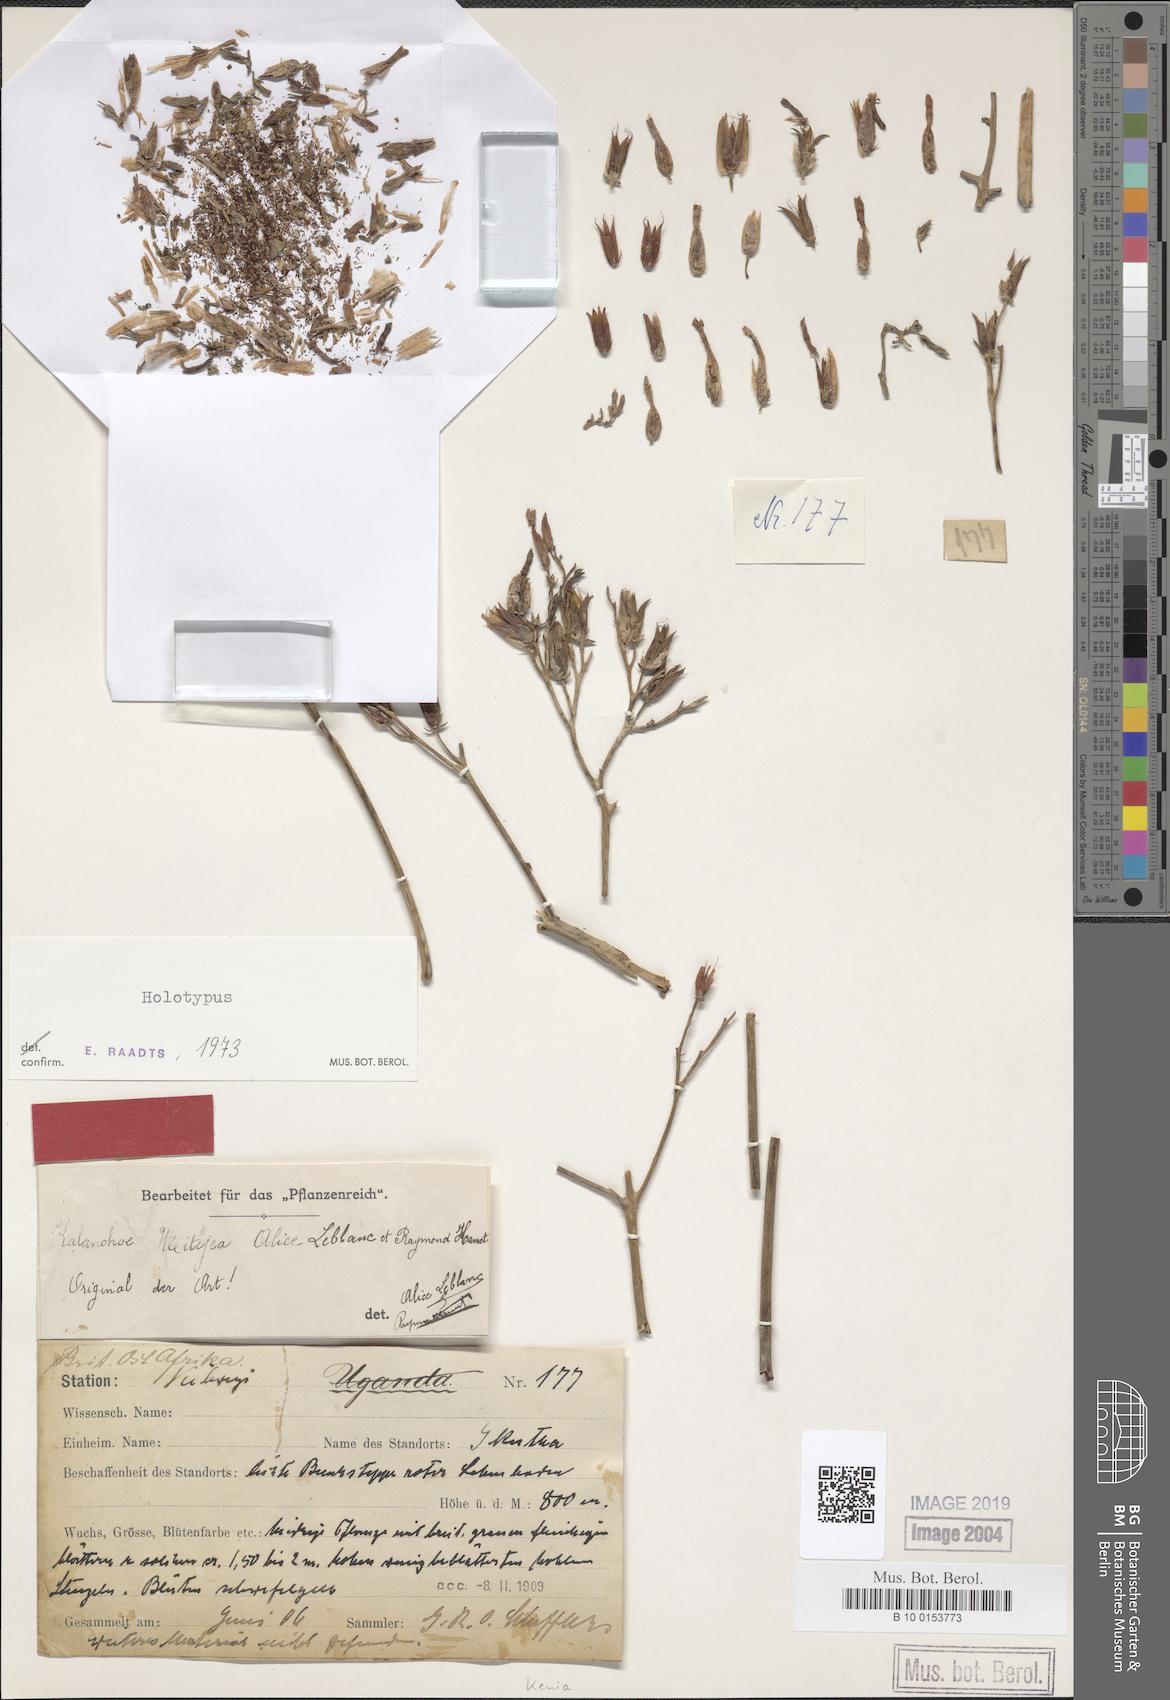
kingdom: Plantae
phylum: Tracheophyta
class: Magnoliopsida
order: Saxifragales
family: Crassulaceae
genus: Kalanchoe
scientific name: Kalanchoe mitejea
